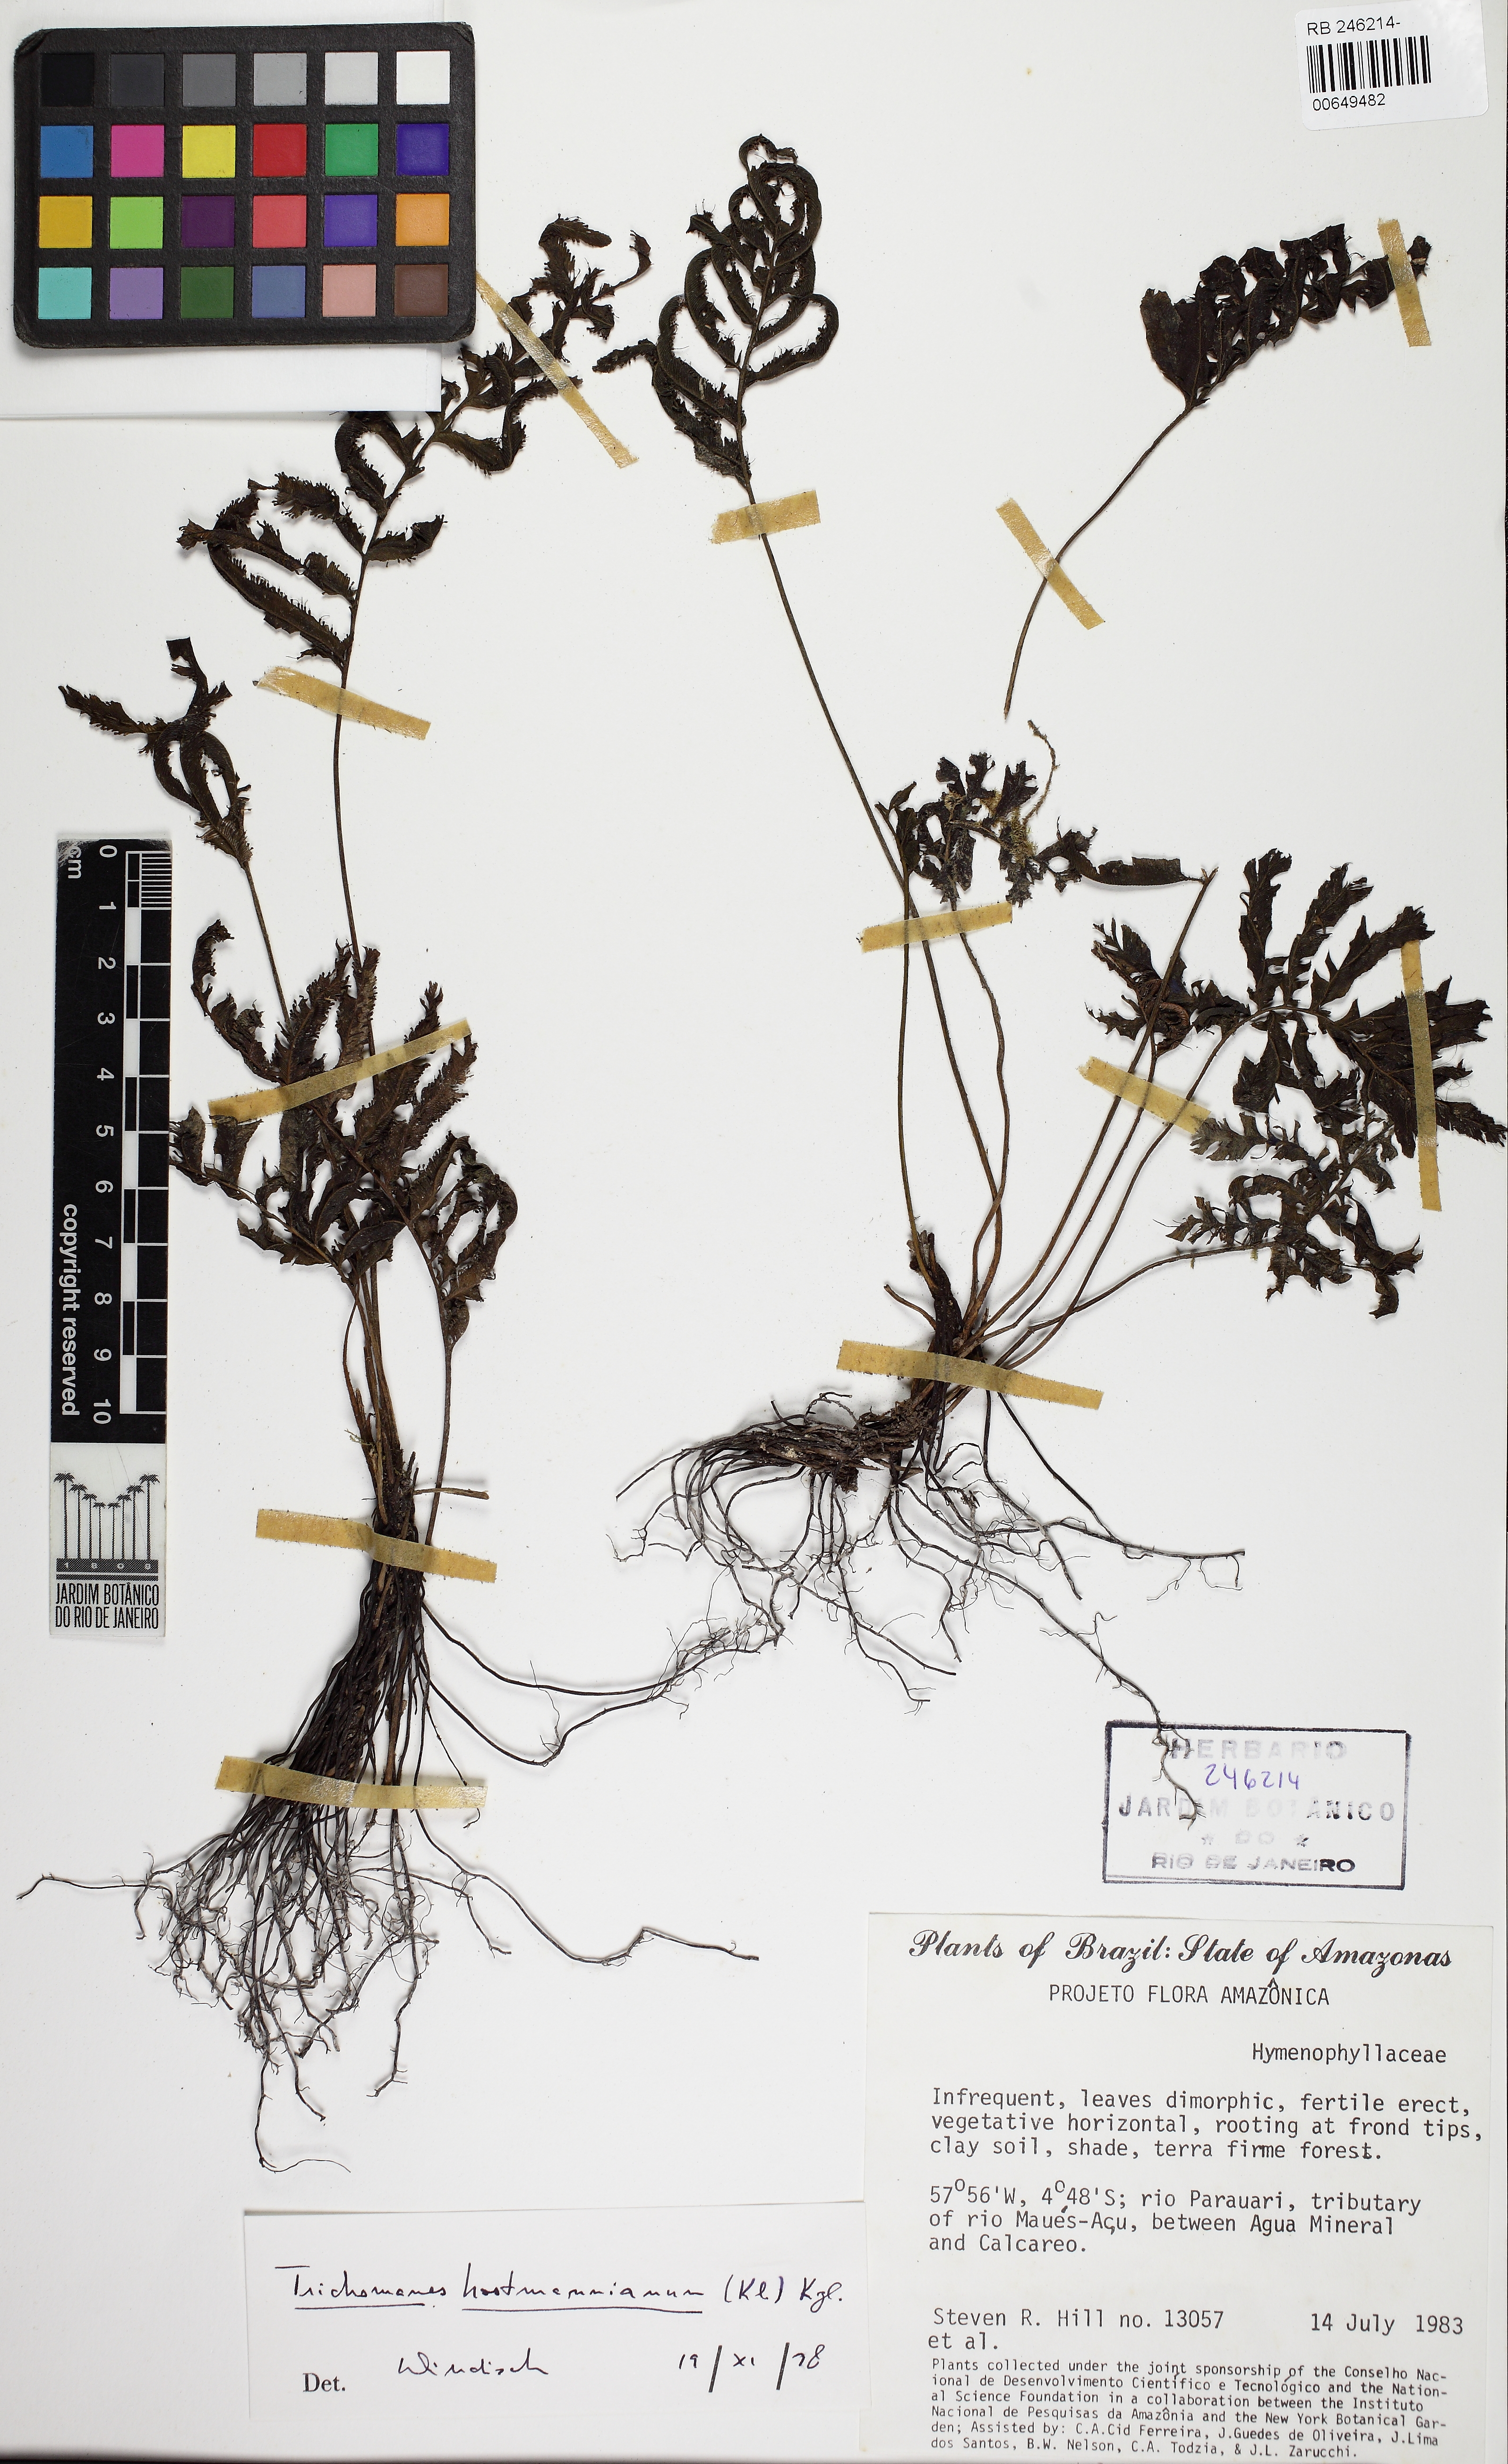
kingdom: Plantae
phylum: Tracheophyta
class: Polypodiopsida
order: Hymenophyllales
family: Hymenophyllaceae
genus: Trichomanes
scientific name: Trichomanes hostmannianum
